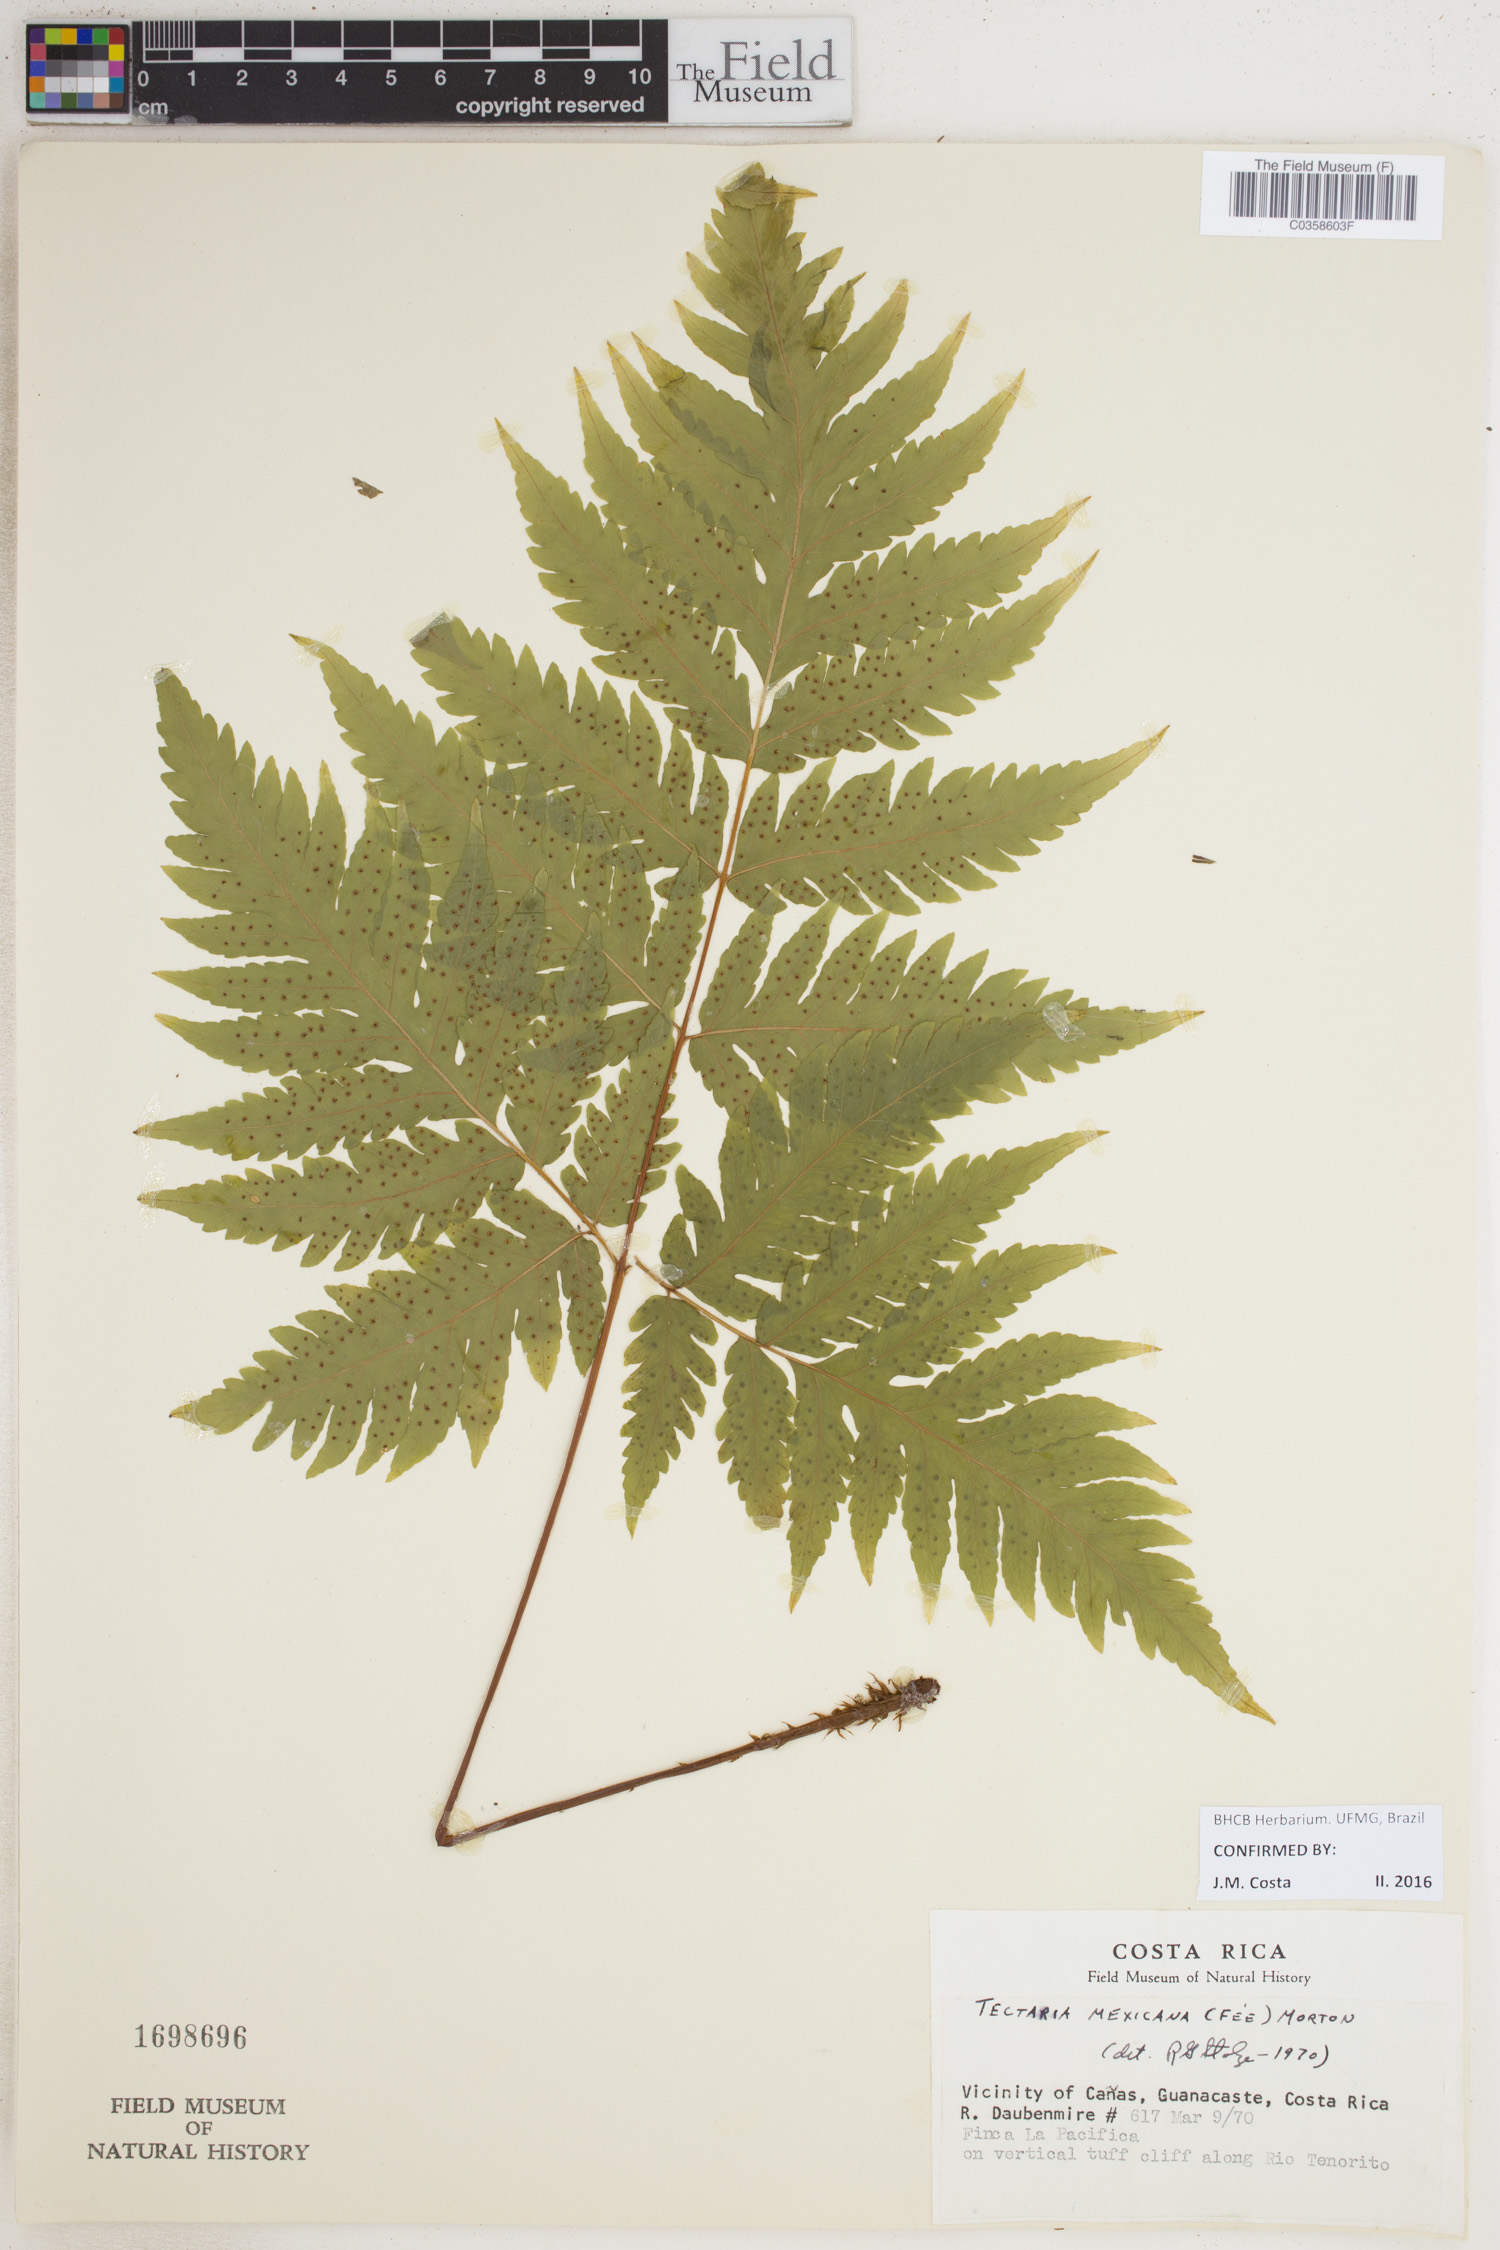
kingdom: Plantae
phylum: Tracheophyta
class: Polypodiopsida
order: Polypodiales
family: Tectariaceae
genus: Tectaria
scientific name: Tectaria mexicana
